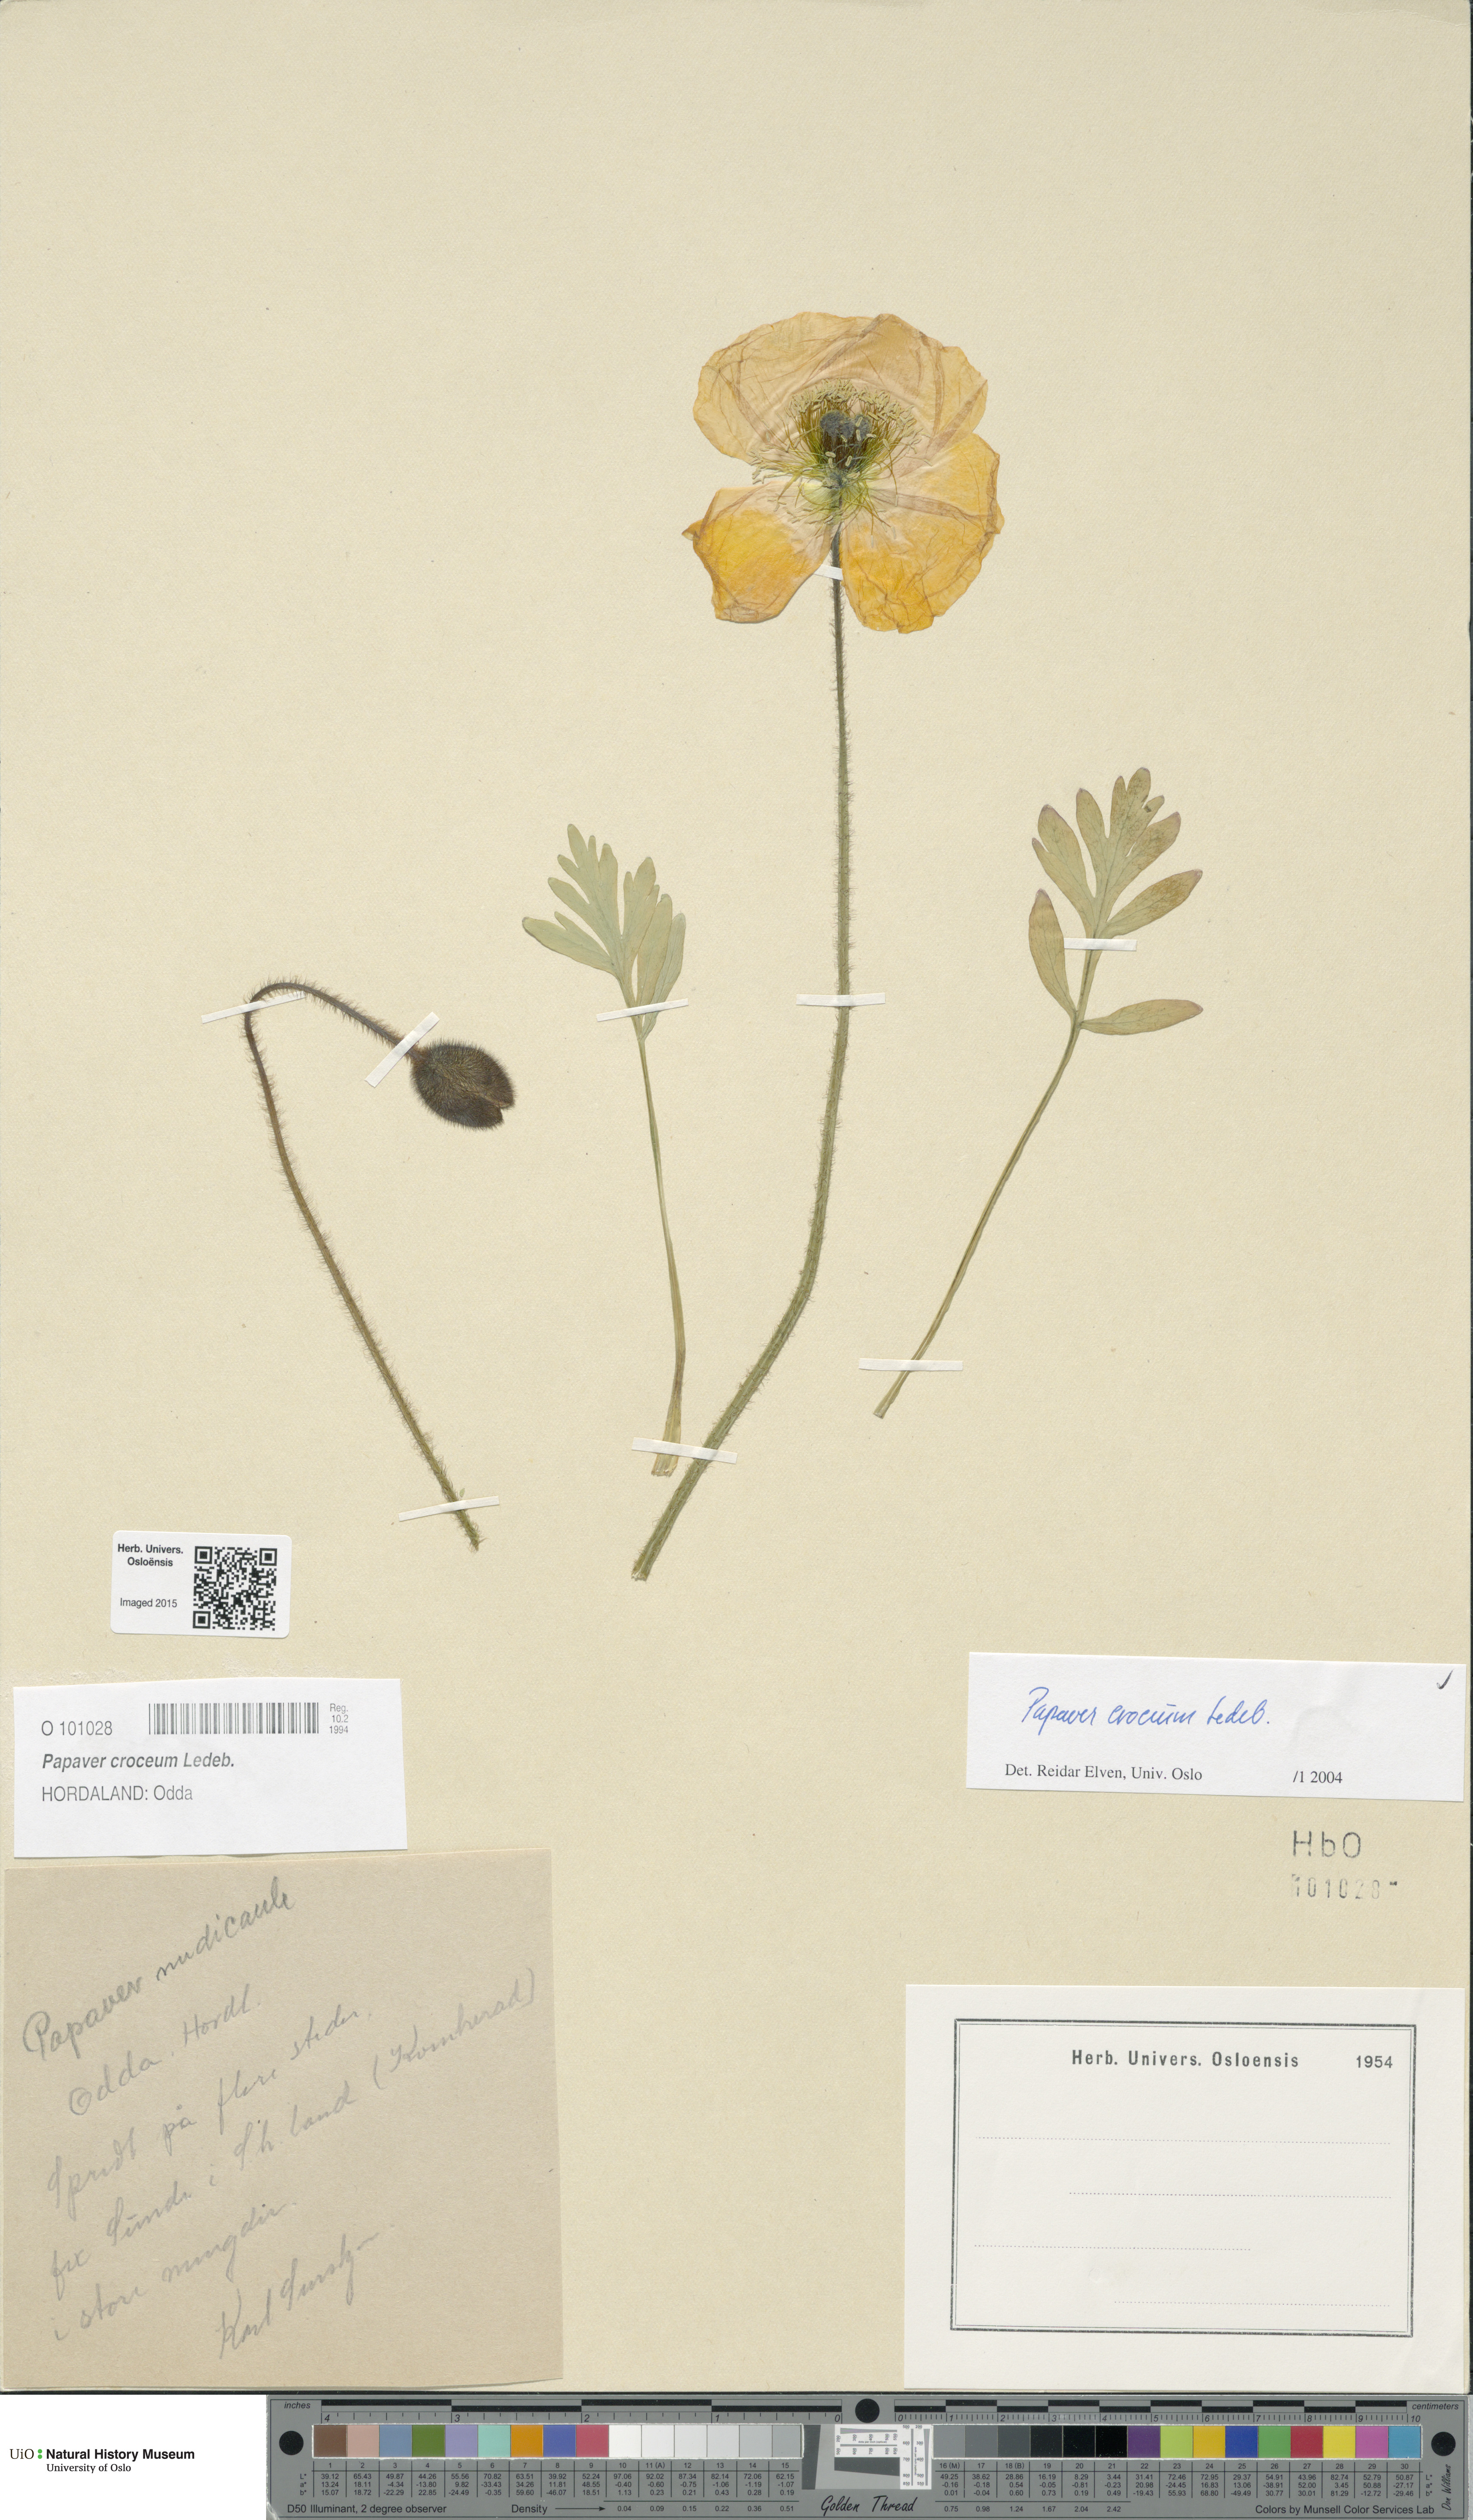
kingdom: Plantae
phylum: Tracheophyta
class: Magnoliopsida
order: Ranunculales
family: Papaveraceae
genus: Papaver
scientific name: Papaver croceum
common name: Siberian poppy
